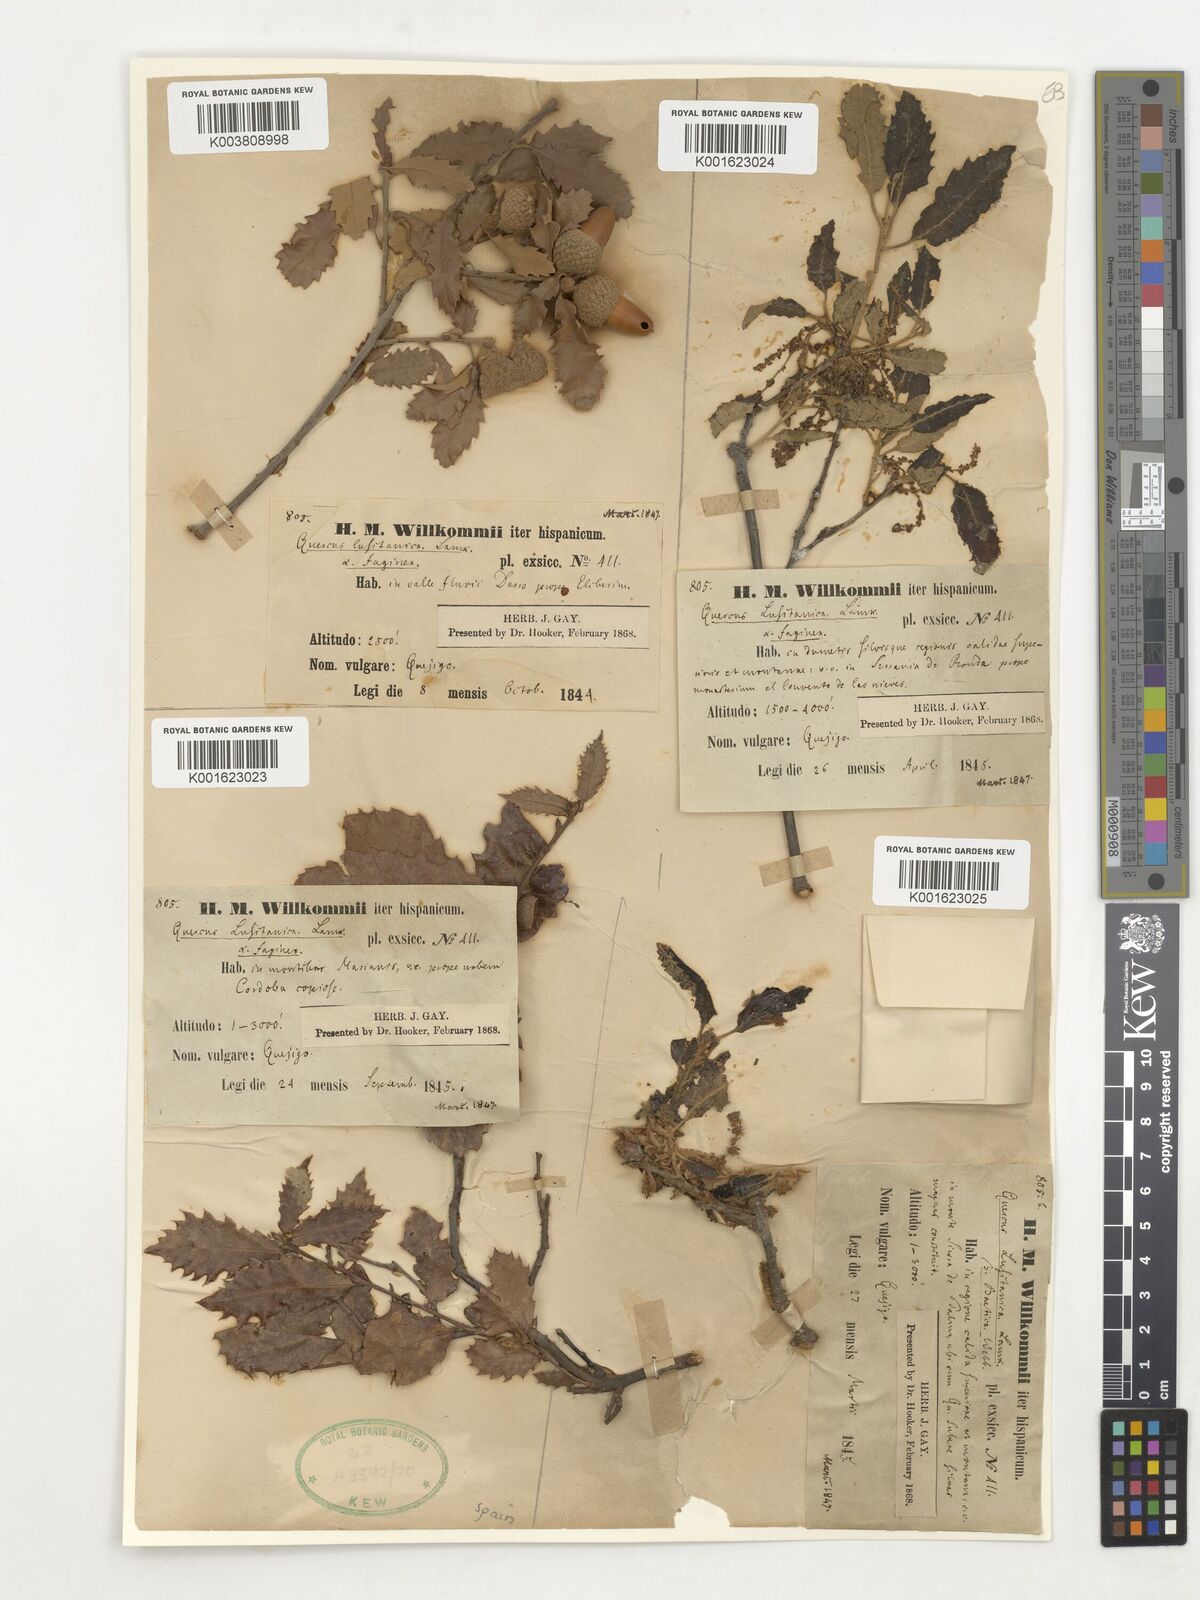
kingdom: Plantae
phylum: Tracheophyta
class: Magnoliopsida
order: Fagales
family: Fagaceae
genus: Quercus
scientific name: Quercus faginea
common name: Gall oak tree
